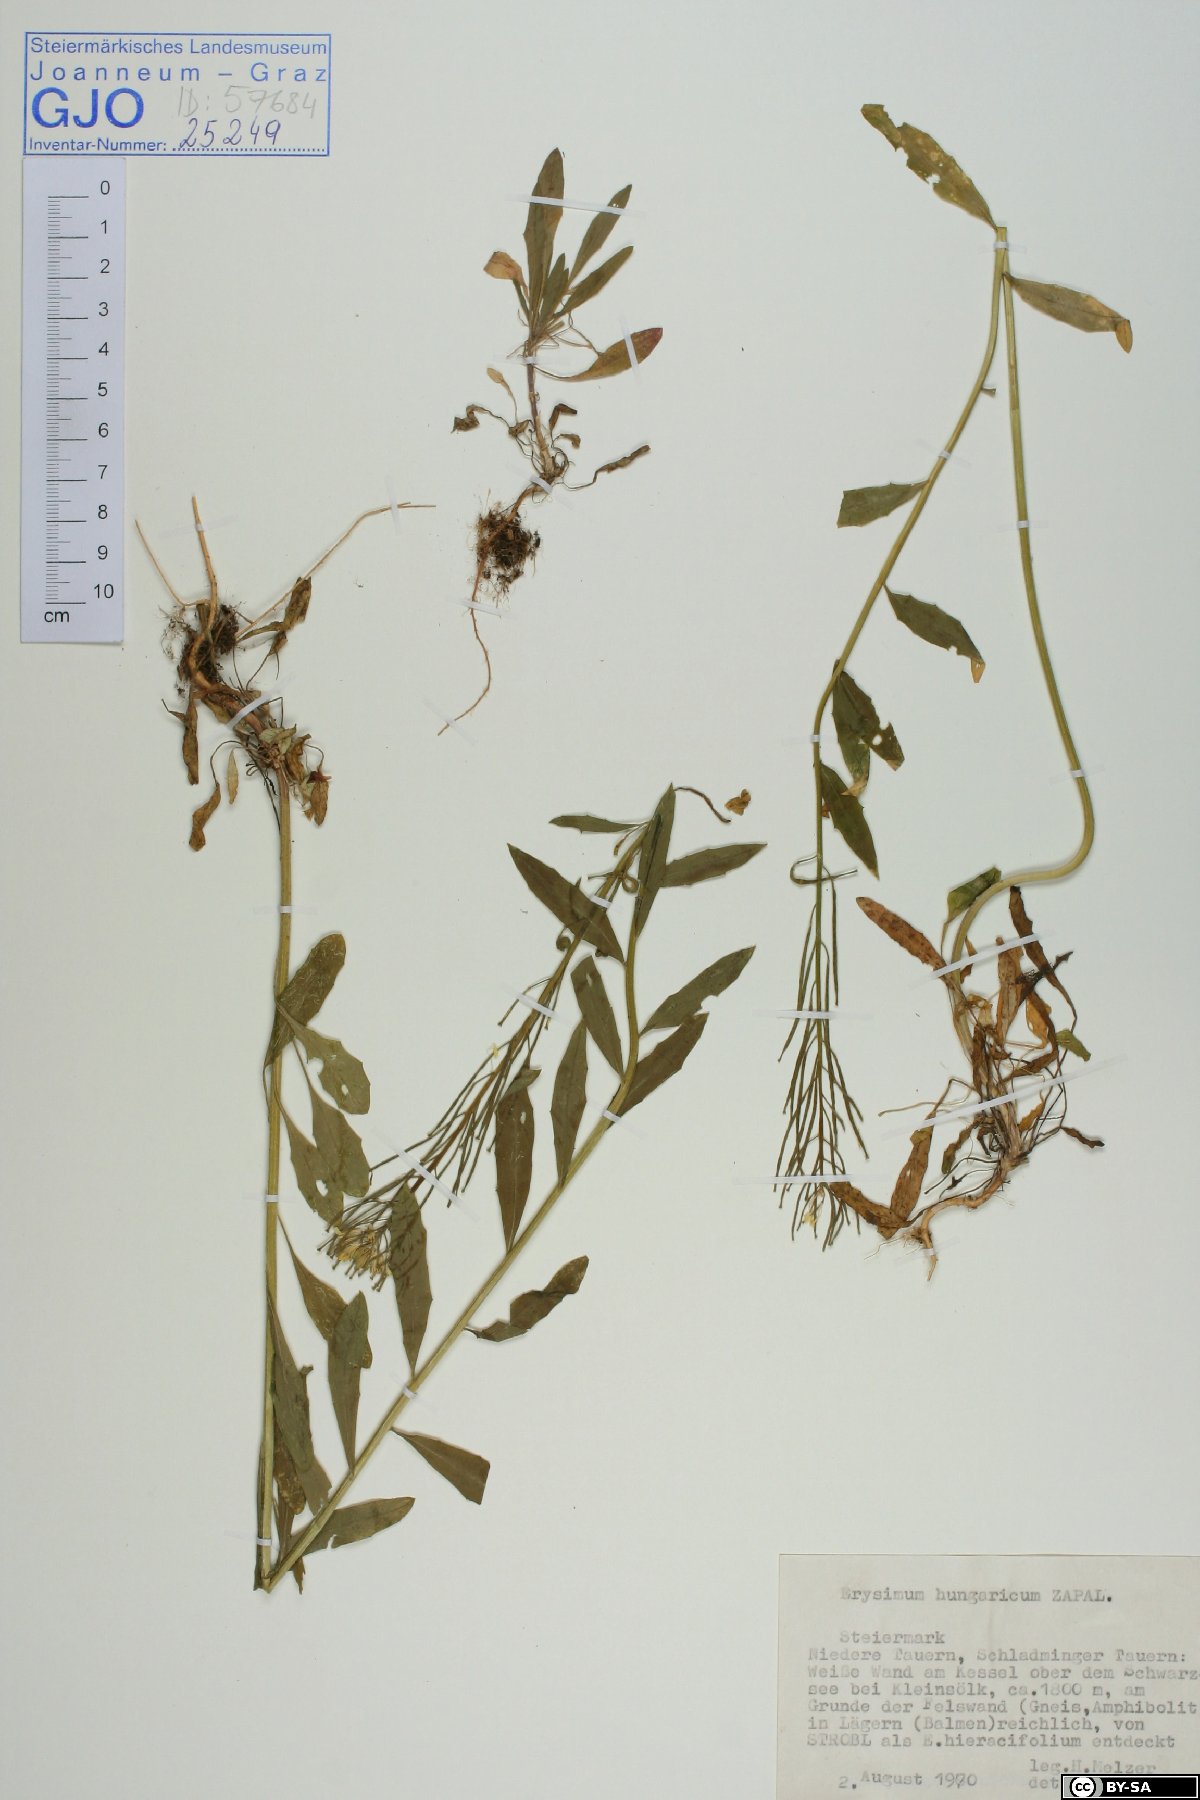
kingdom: Plantae
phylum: Tracheophyta
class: Magnoliopsida
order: Brassicales
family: Brassicaceae
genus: Erysimum
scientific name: Erysimum hungaricum
